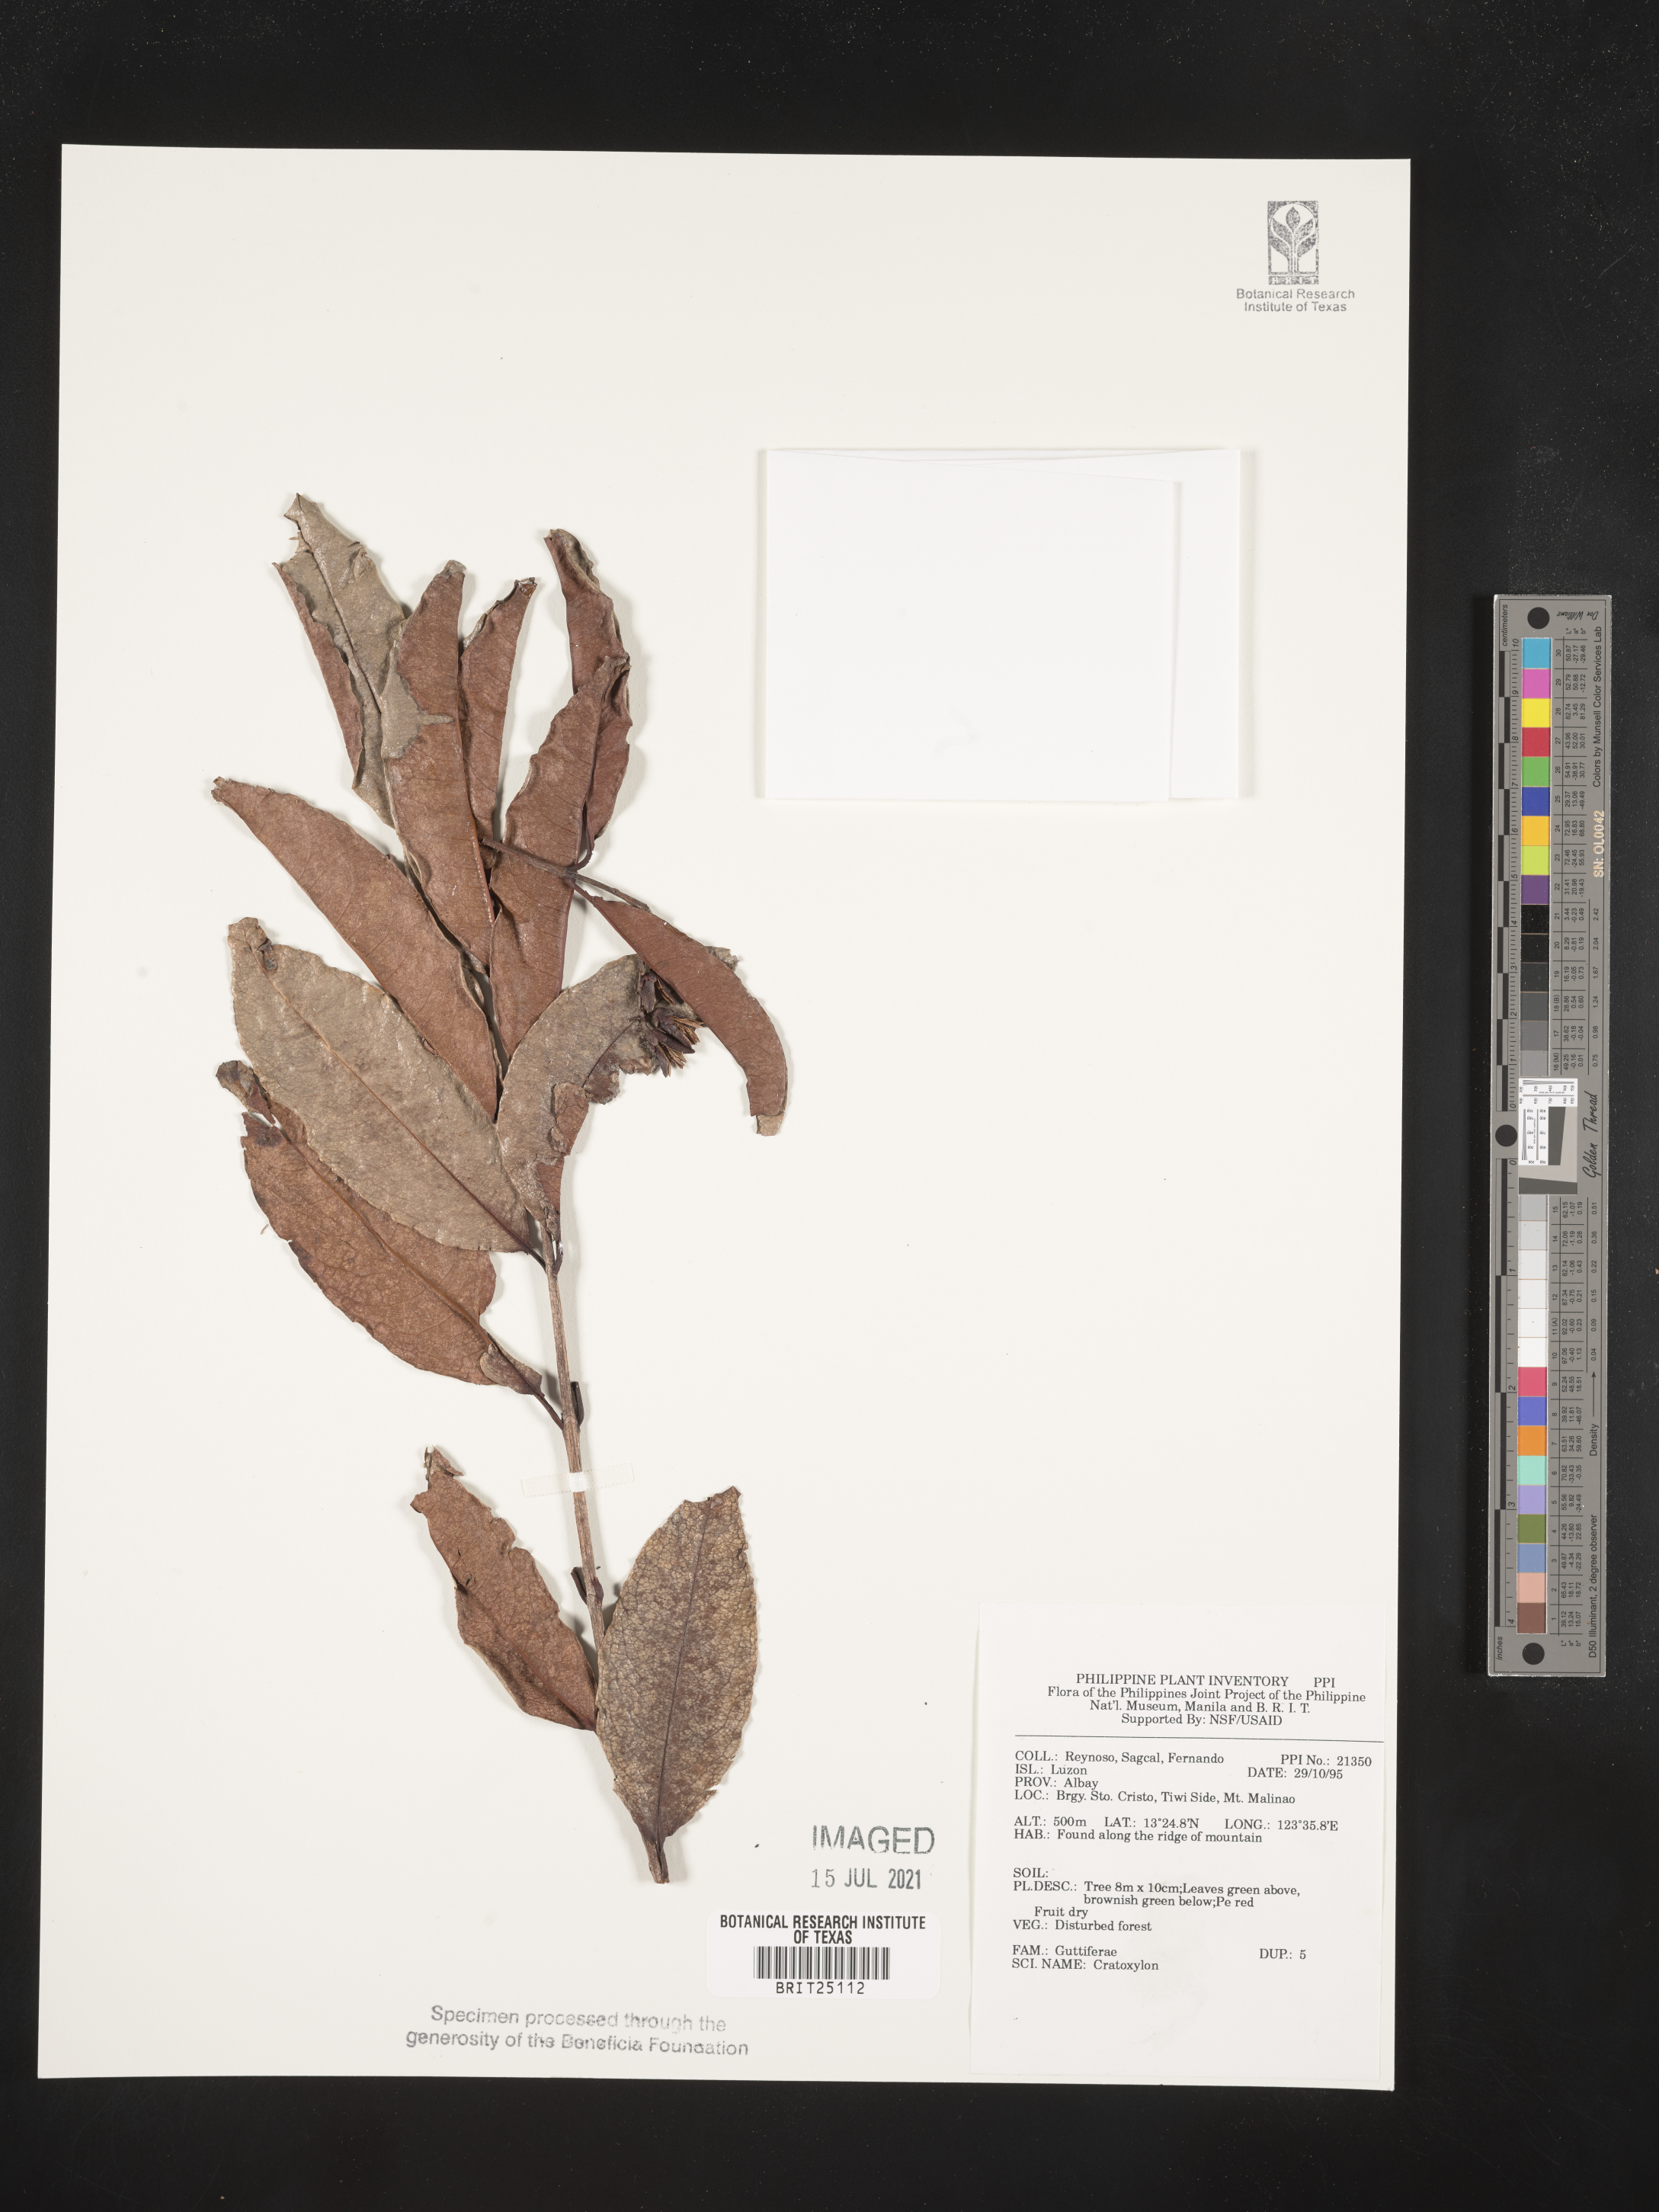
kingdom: Plantae
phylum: Tracheophyta
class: Magnoliopsida
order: Malpighiales
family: Hypericaceae
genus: Cratoxylum
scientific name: Cratoxylum
